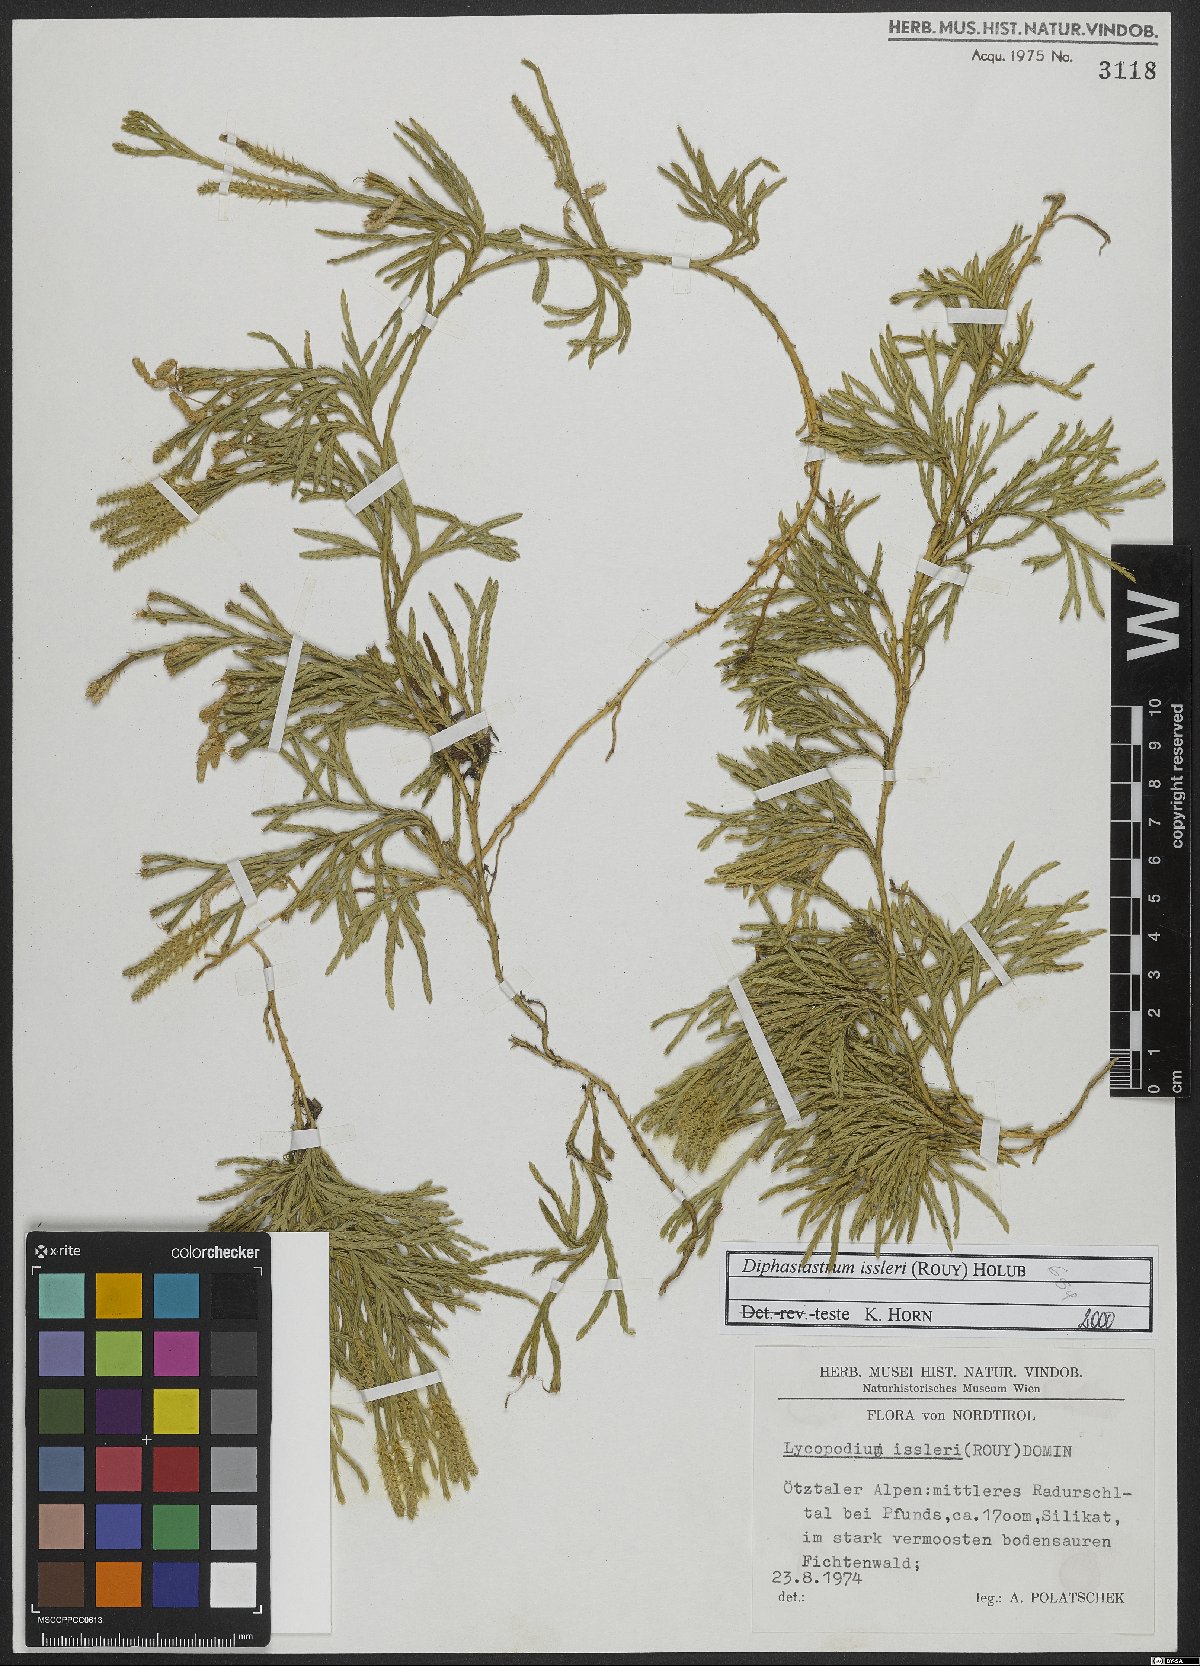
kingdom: Plantae
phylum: Tracheophyta
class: Lycopodiopsida
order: Lycopodiales
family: Lycopodiaceae
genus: Diphasiastrum
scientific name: Diphasiastrum issleri
